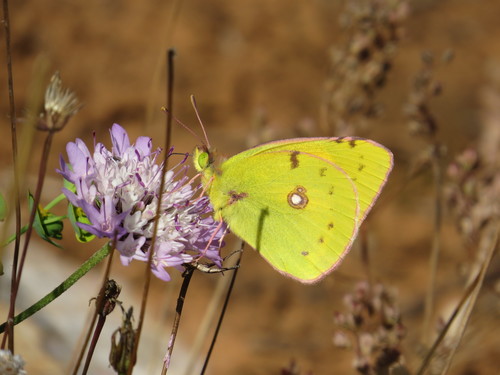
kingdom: Animalia
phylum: Arthropoda
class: Insecta
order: Lepidoptera
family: Pieridae
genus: Colias
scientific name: Colias croceus
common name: Clouded yellow
